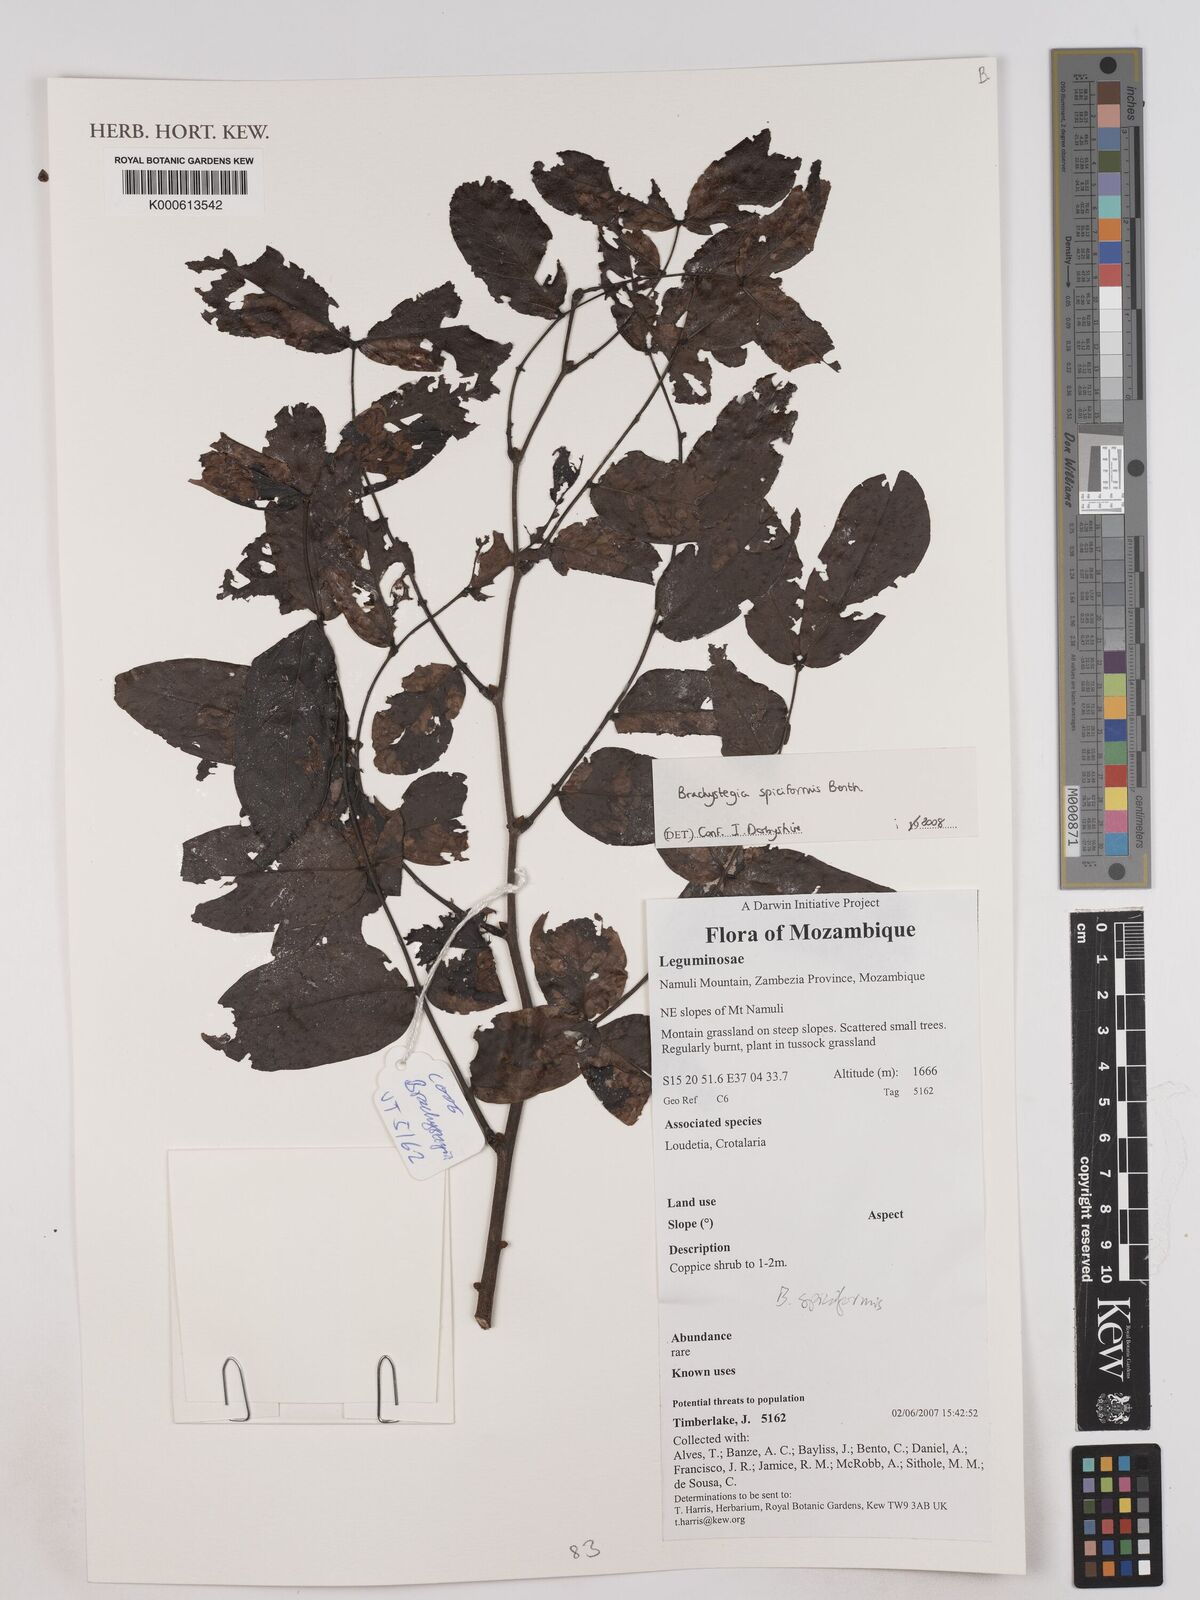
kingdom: Plantae
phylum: Tracheophyta
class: Magnoliopsida
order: Fabales
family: Fabaceae
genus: Brachystegia
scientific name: Brachystegia spiciformis
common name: Zebrawood
